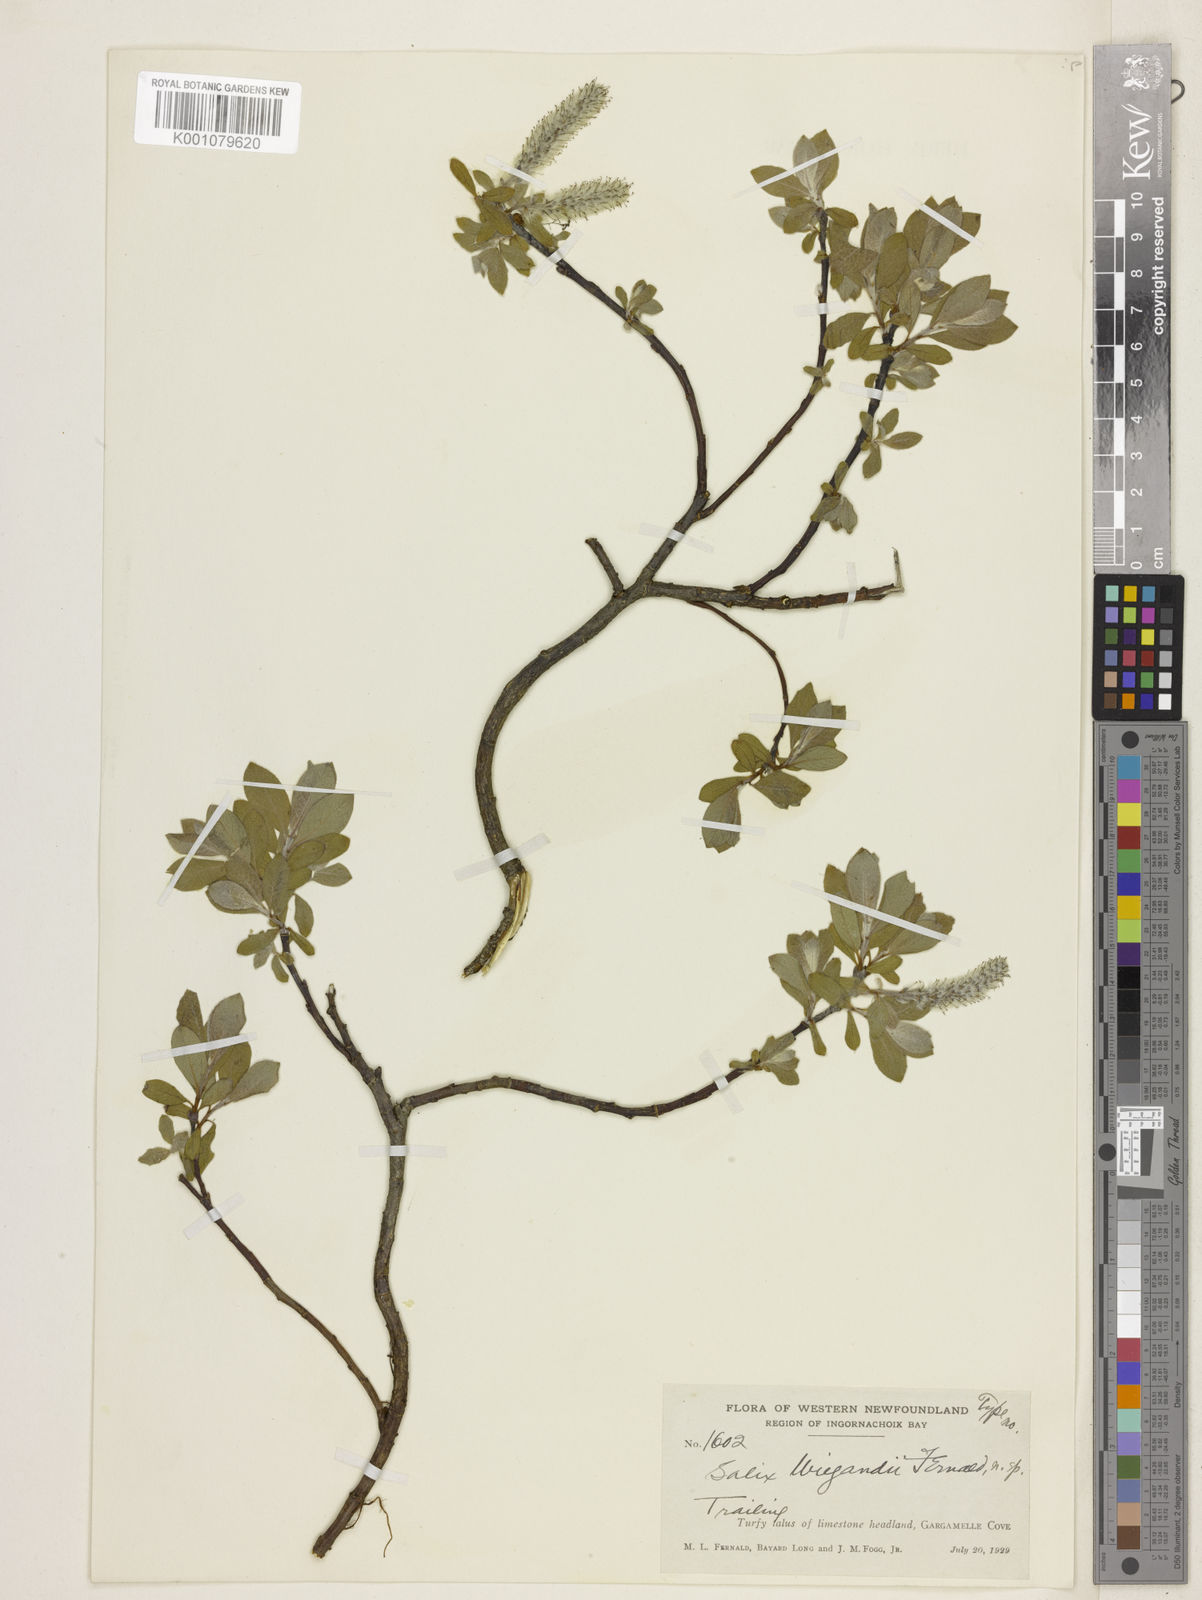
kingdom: Plantae
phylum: Tracheophyta
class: Magnoliopsida
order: Malpighiales
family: Salicaceae
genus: Salix
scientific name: Salix wiegandii
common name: Wiegand's willow
